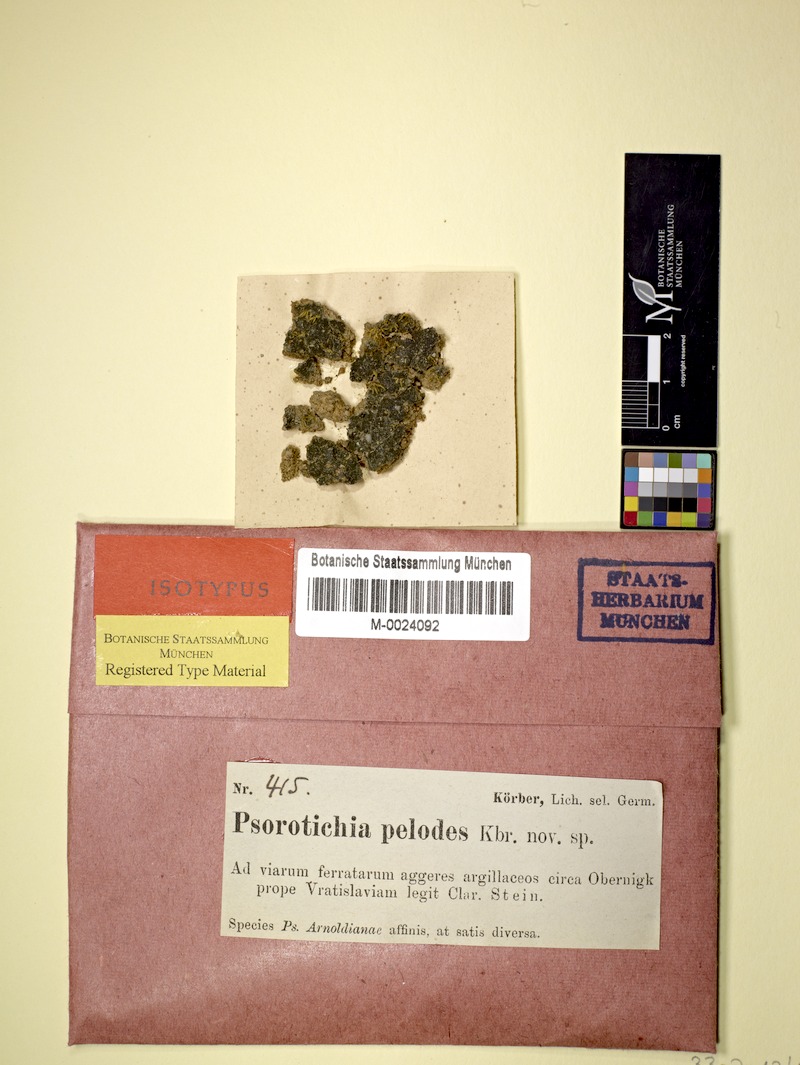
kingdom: Fungi
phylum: Ascomycota
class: Lichinomycetes
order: Lichinales
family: Lichinaceae
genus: Lemmopsis
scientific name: Lemmopsis pelodes
